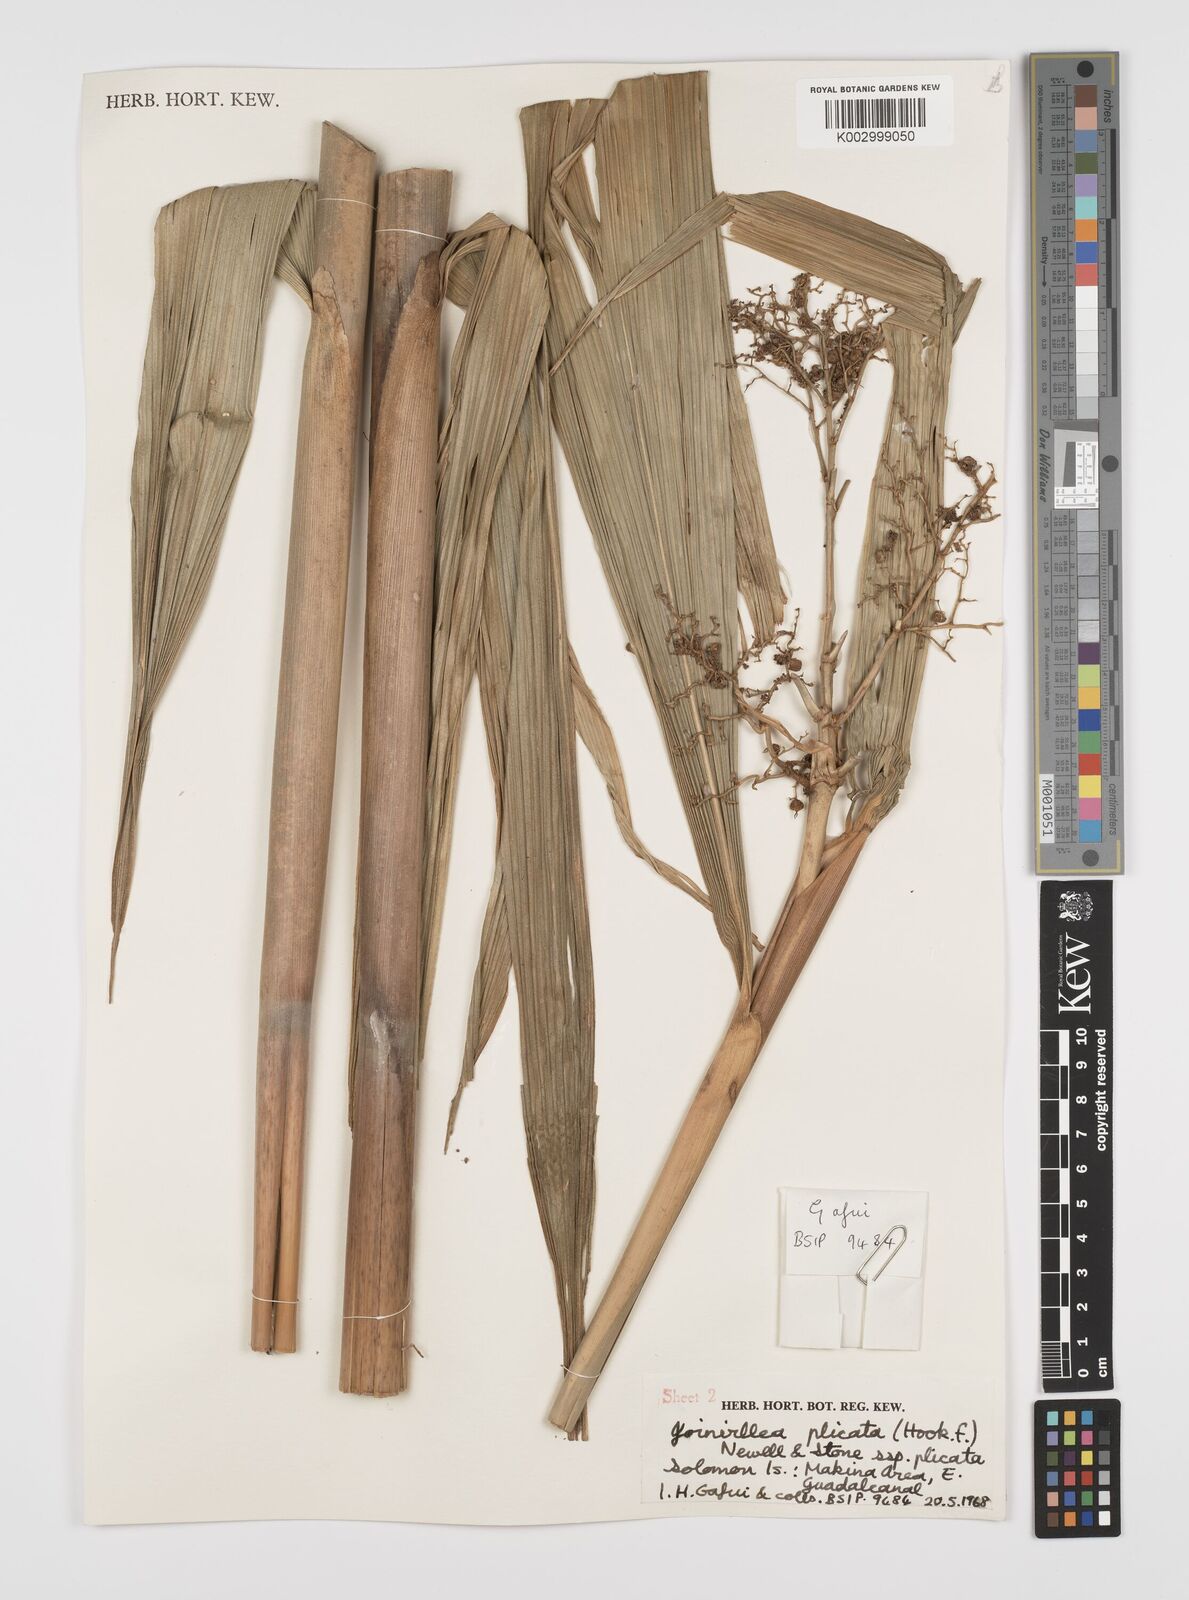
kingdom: Plantae
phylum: Tracheophyta
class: Liliopsida
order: Poales
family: Joinvilleaceae
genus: Joinvillea
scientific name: Joinvillea plicata
